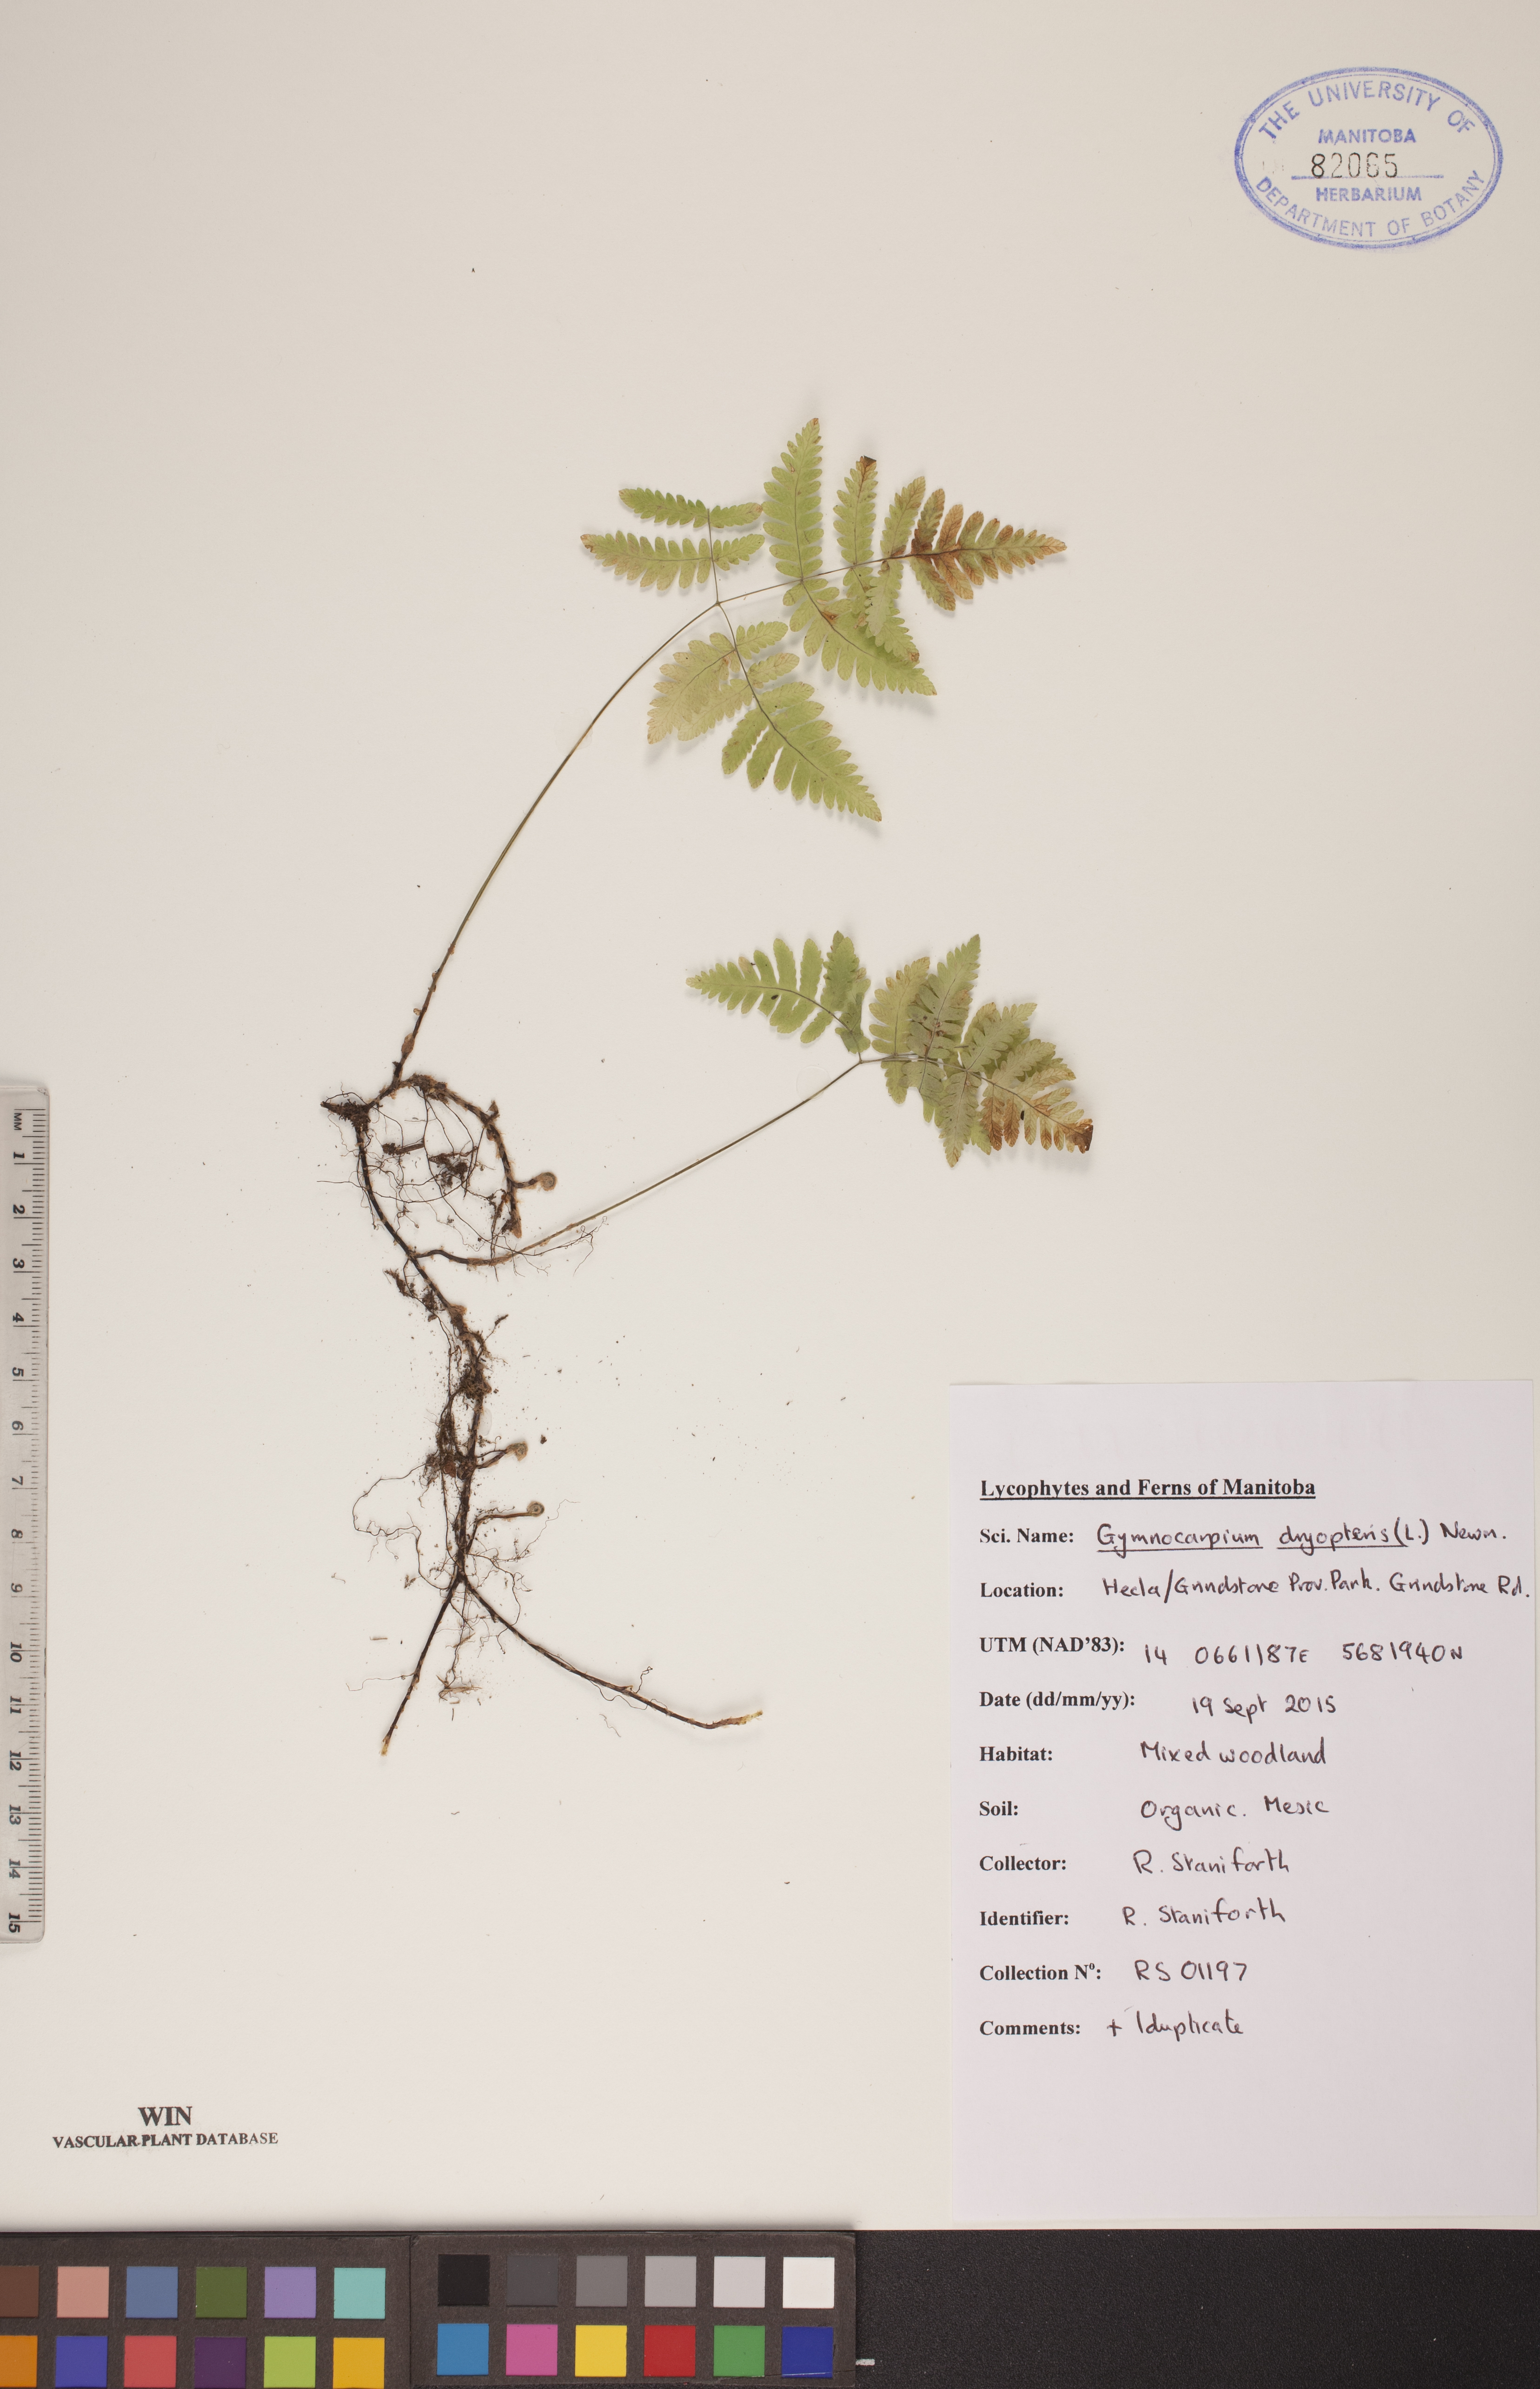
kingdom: Plantae
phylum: Tracheophyta
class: Polypodiopsida
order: Polypodiales
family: Cystopteridaceae
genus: Gymnocarpium
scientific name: Gymnocarpium dryopteris
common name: Oak fern
